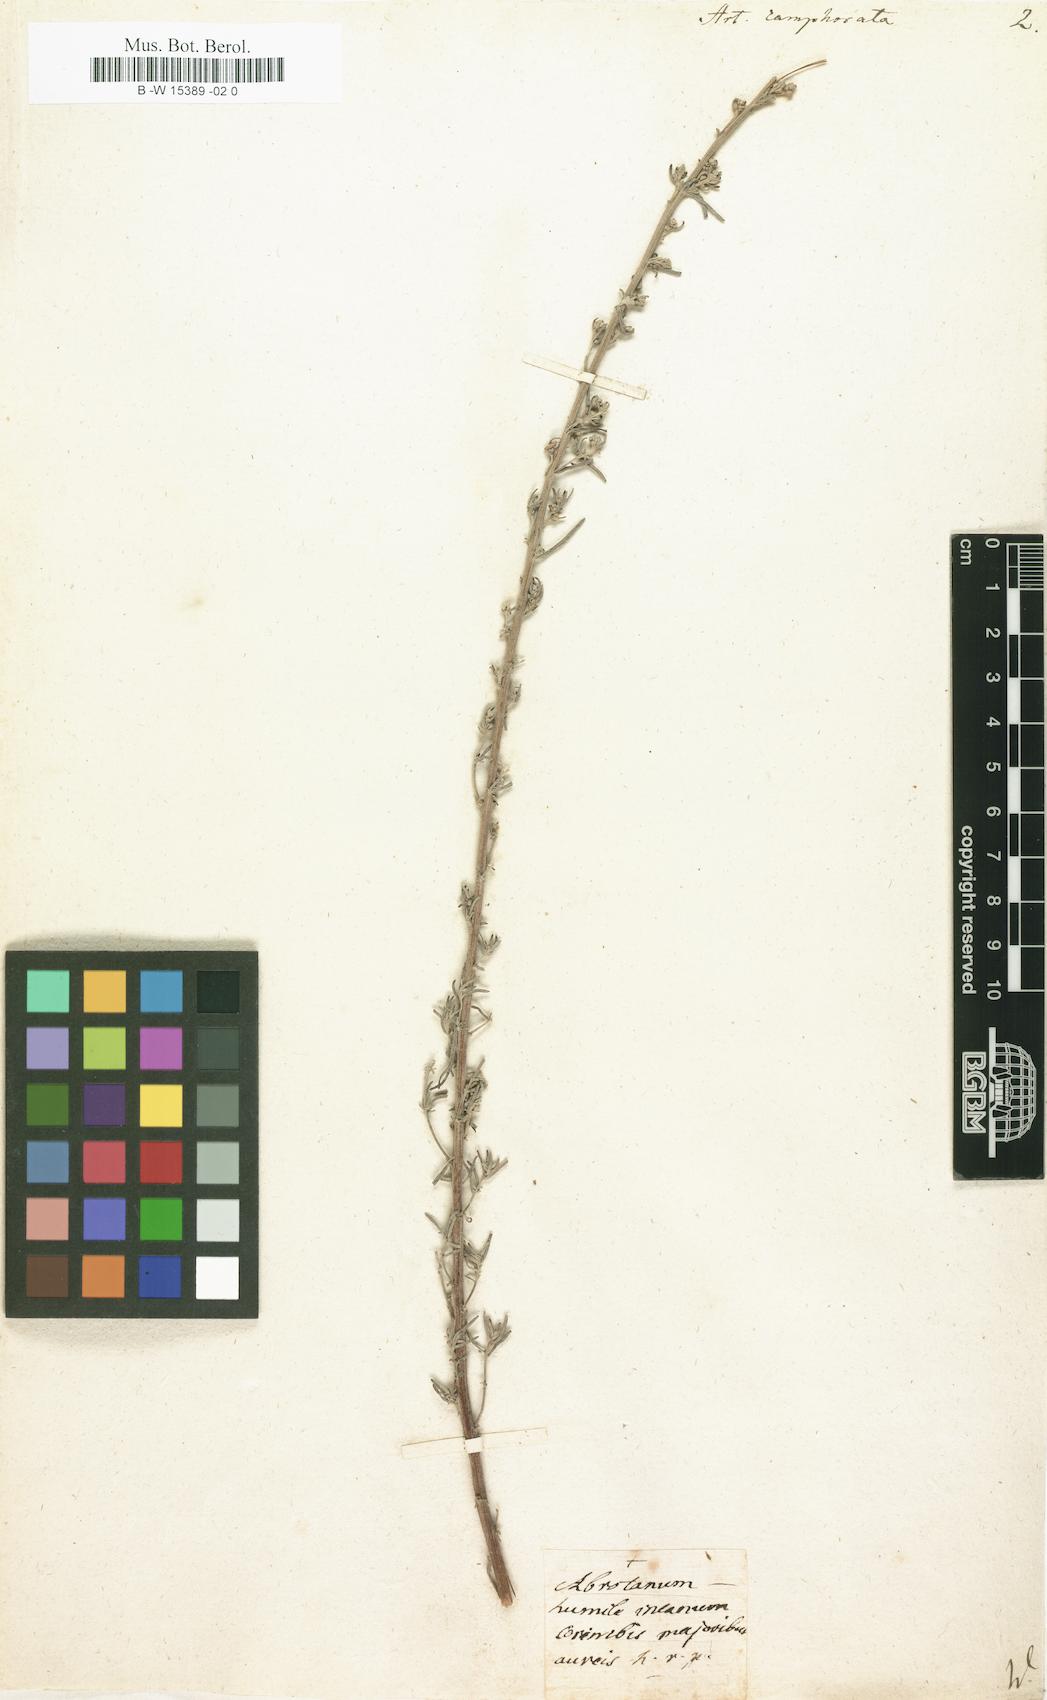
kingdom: Plantae
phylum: Tracheophyta
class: Magnoliopsida
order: Asterales
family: Asteraceae
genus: Artemisia
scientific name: Artemisia alba
